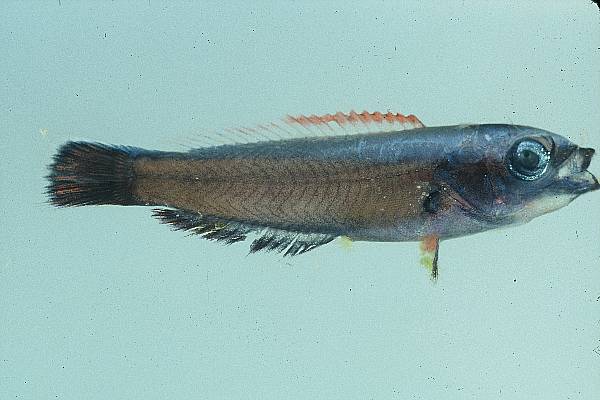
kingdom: Animalia
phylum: Chordata
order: Perciformes
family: Labridae
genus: Pseudodax
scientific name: Pseudodax moluccanus
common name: Chiseltooth wrasse
